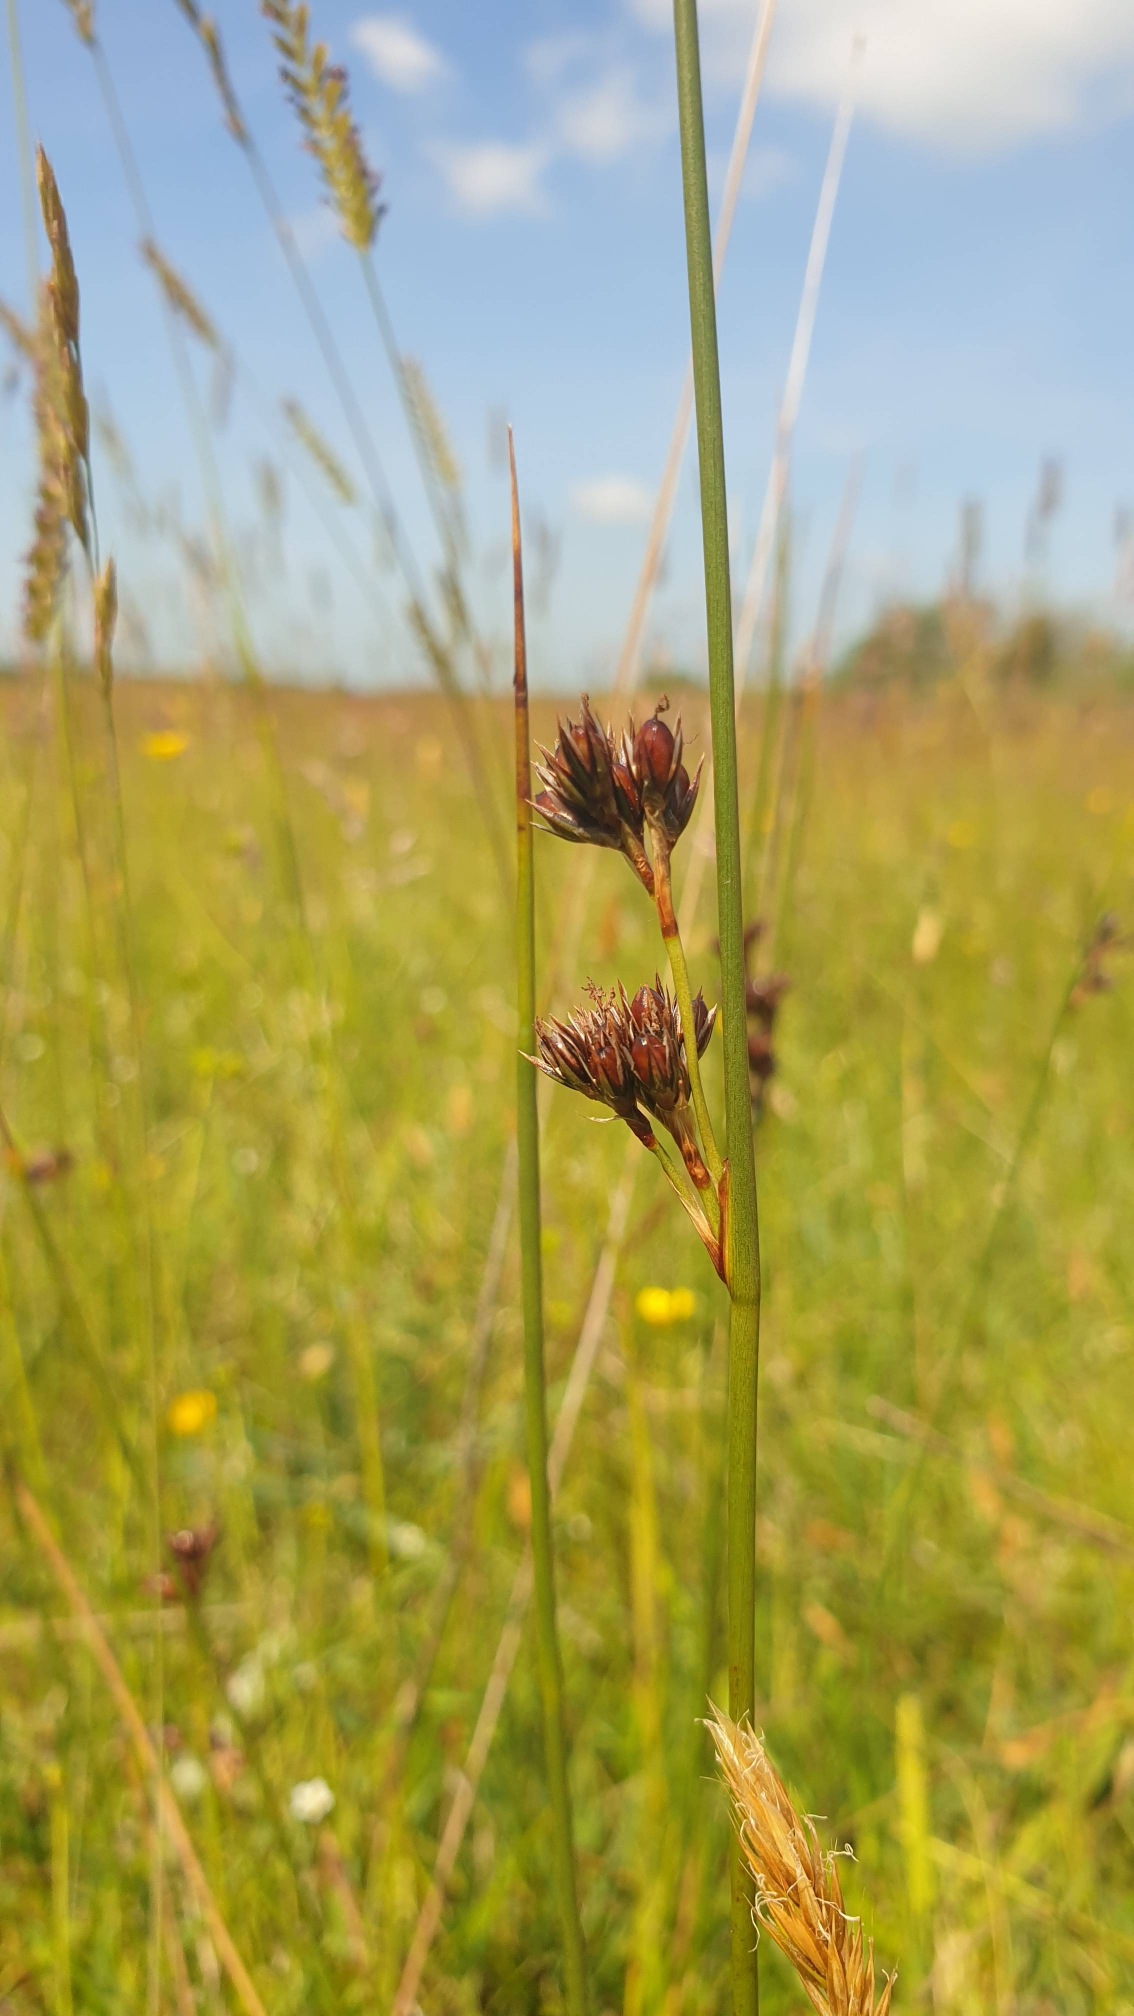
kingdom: Plantae
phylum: Tracheophyta
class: Liliopsida
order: Poales
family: Juncaceae
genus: Juncus
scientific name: Juncus balticus
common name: Klit-siv
